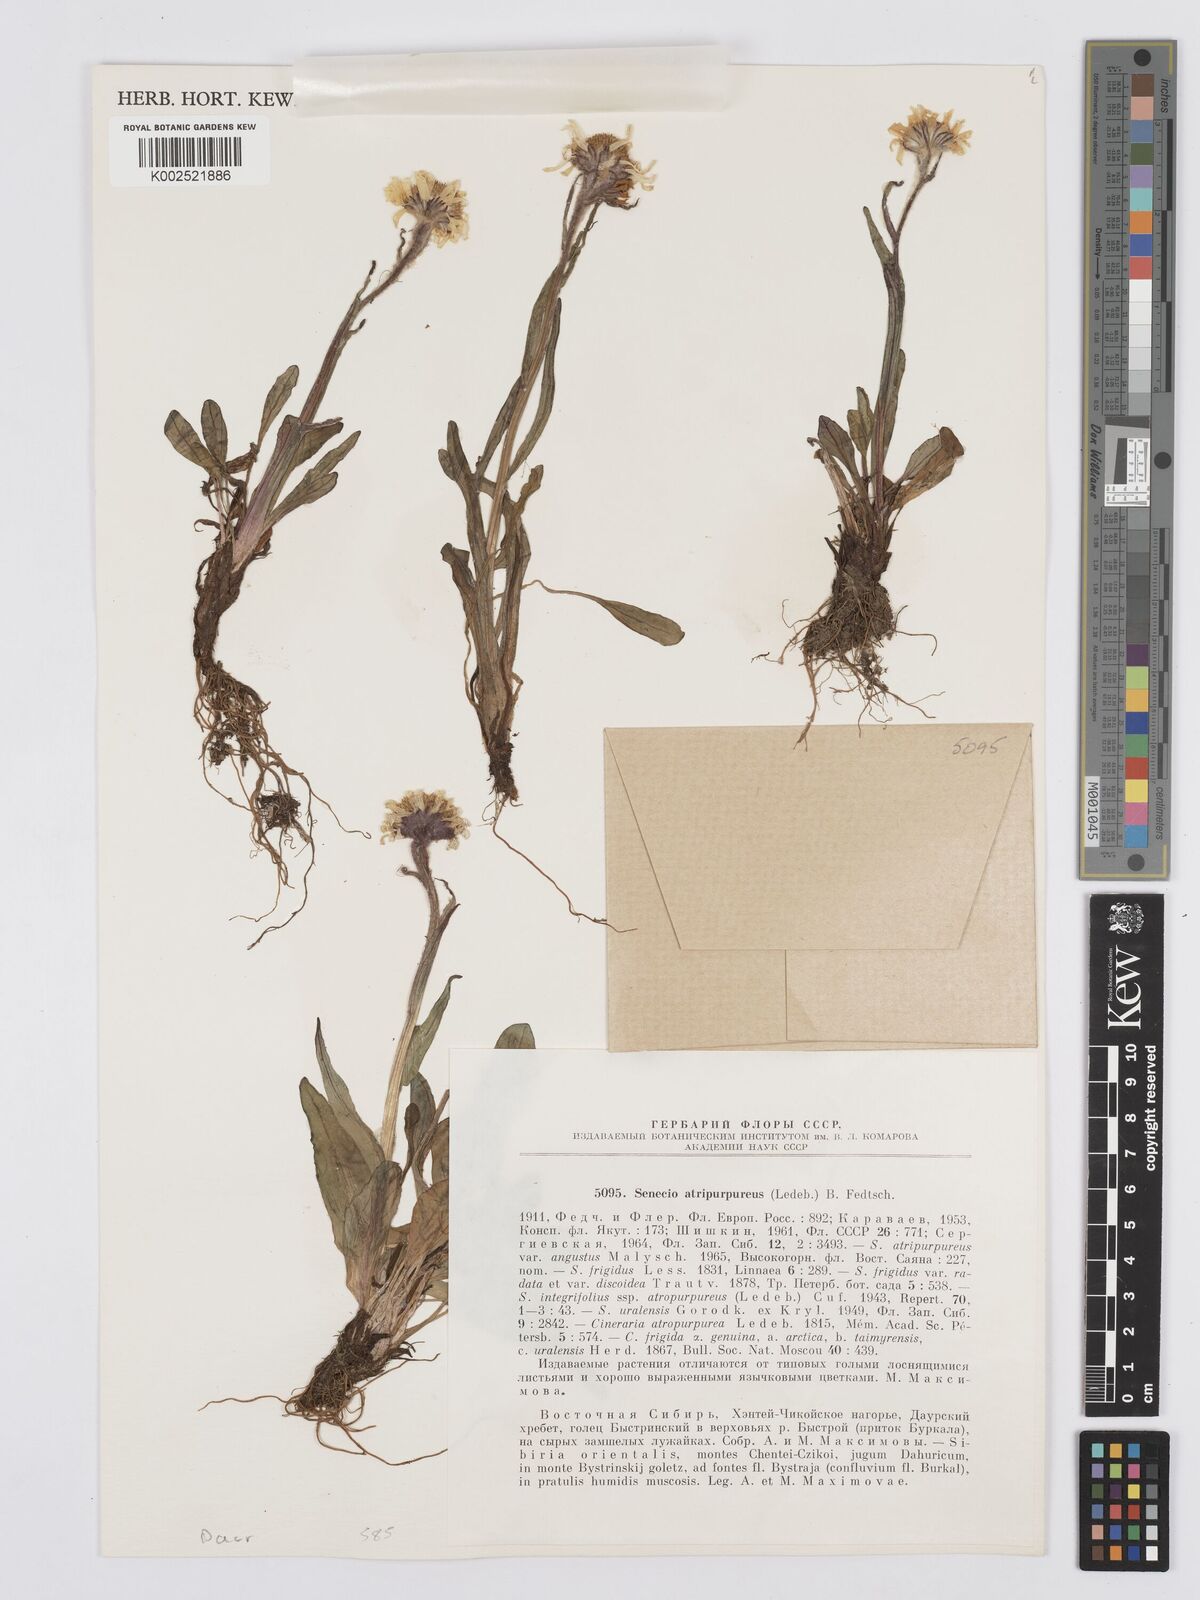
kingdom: Plantae
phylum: Tracheophyta
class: Magnoliopsida
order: Asterales
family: Asteraceae
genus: Tephroseris
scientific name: Tephroseris integrifolia
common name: Field fleawort
